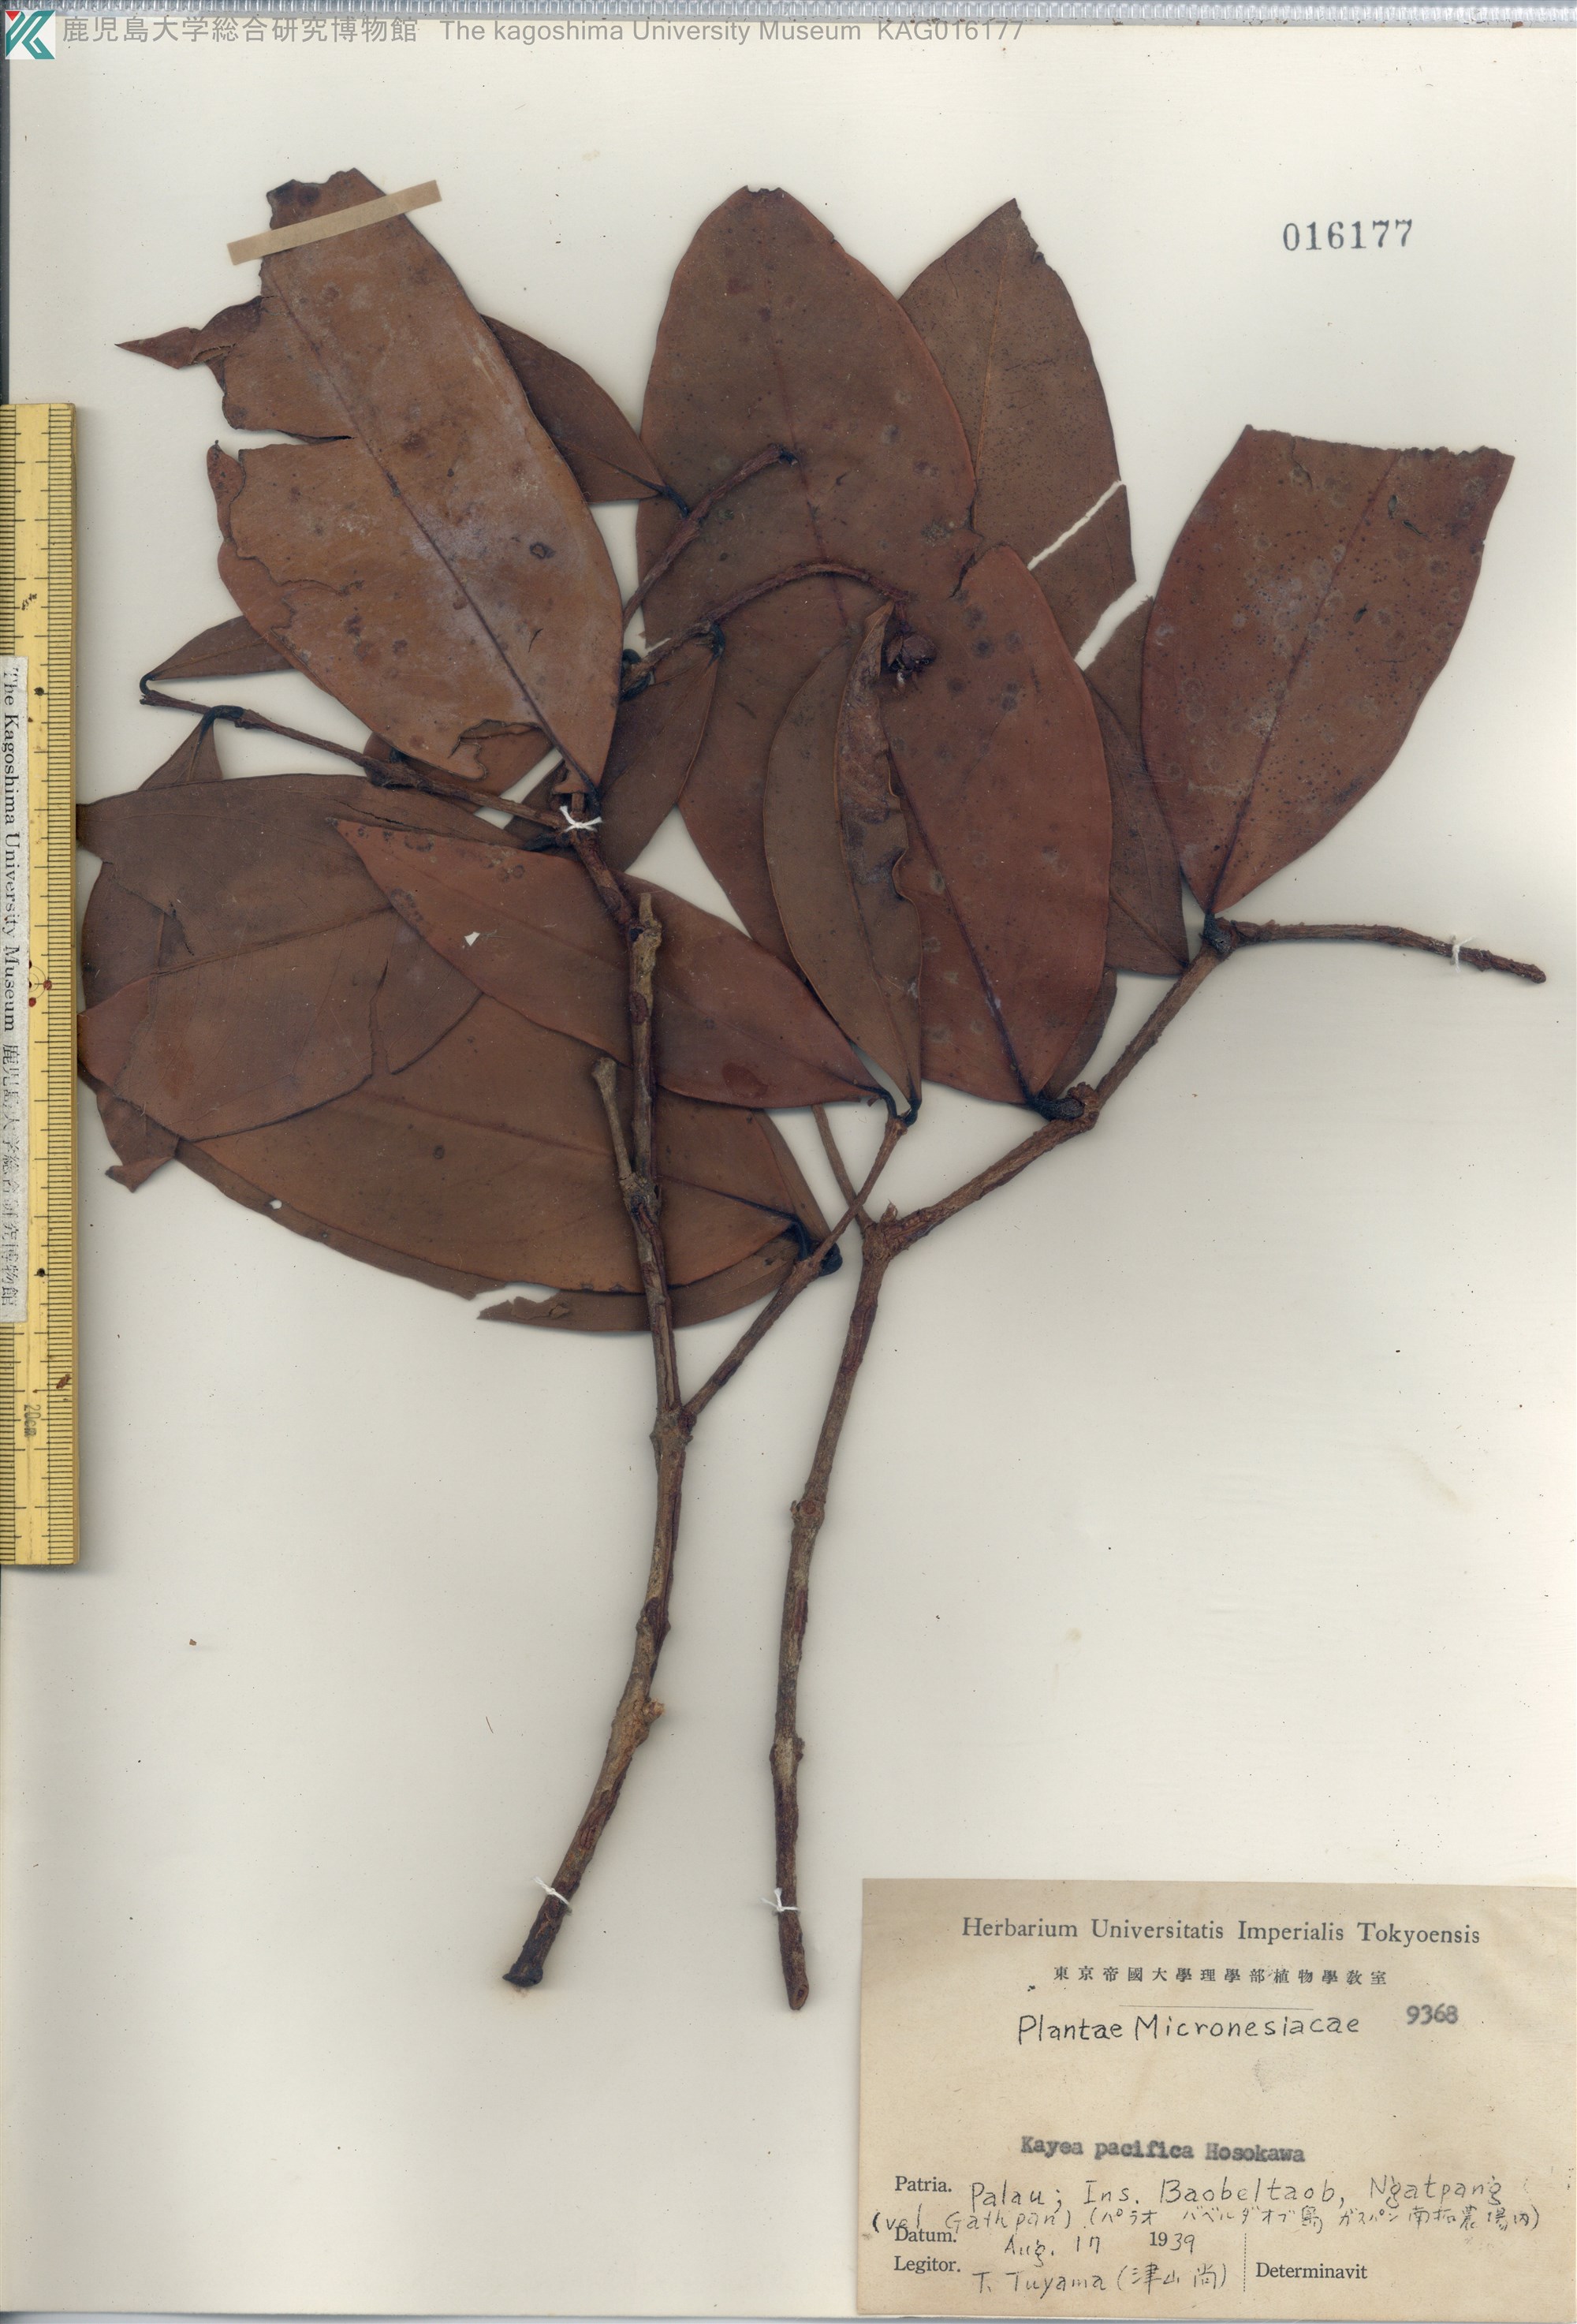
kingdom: Plantae
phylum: Tracheophyta
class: Magnoliopsida
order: Malpighiales
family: Calophyllaceae
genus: Kayea
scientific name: Kayea pacifica
